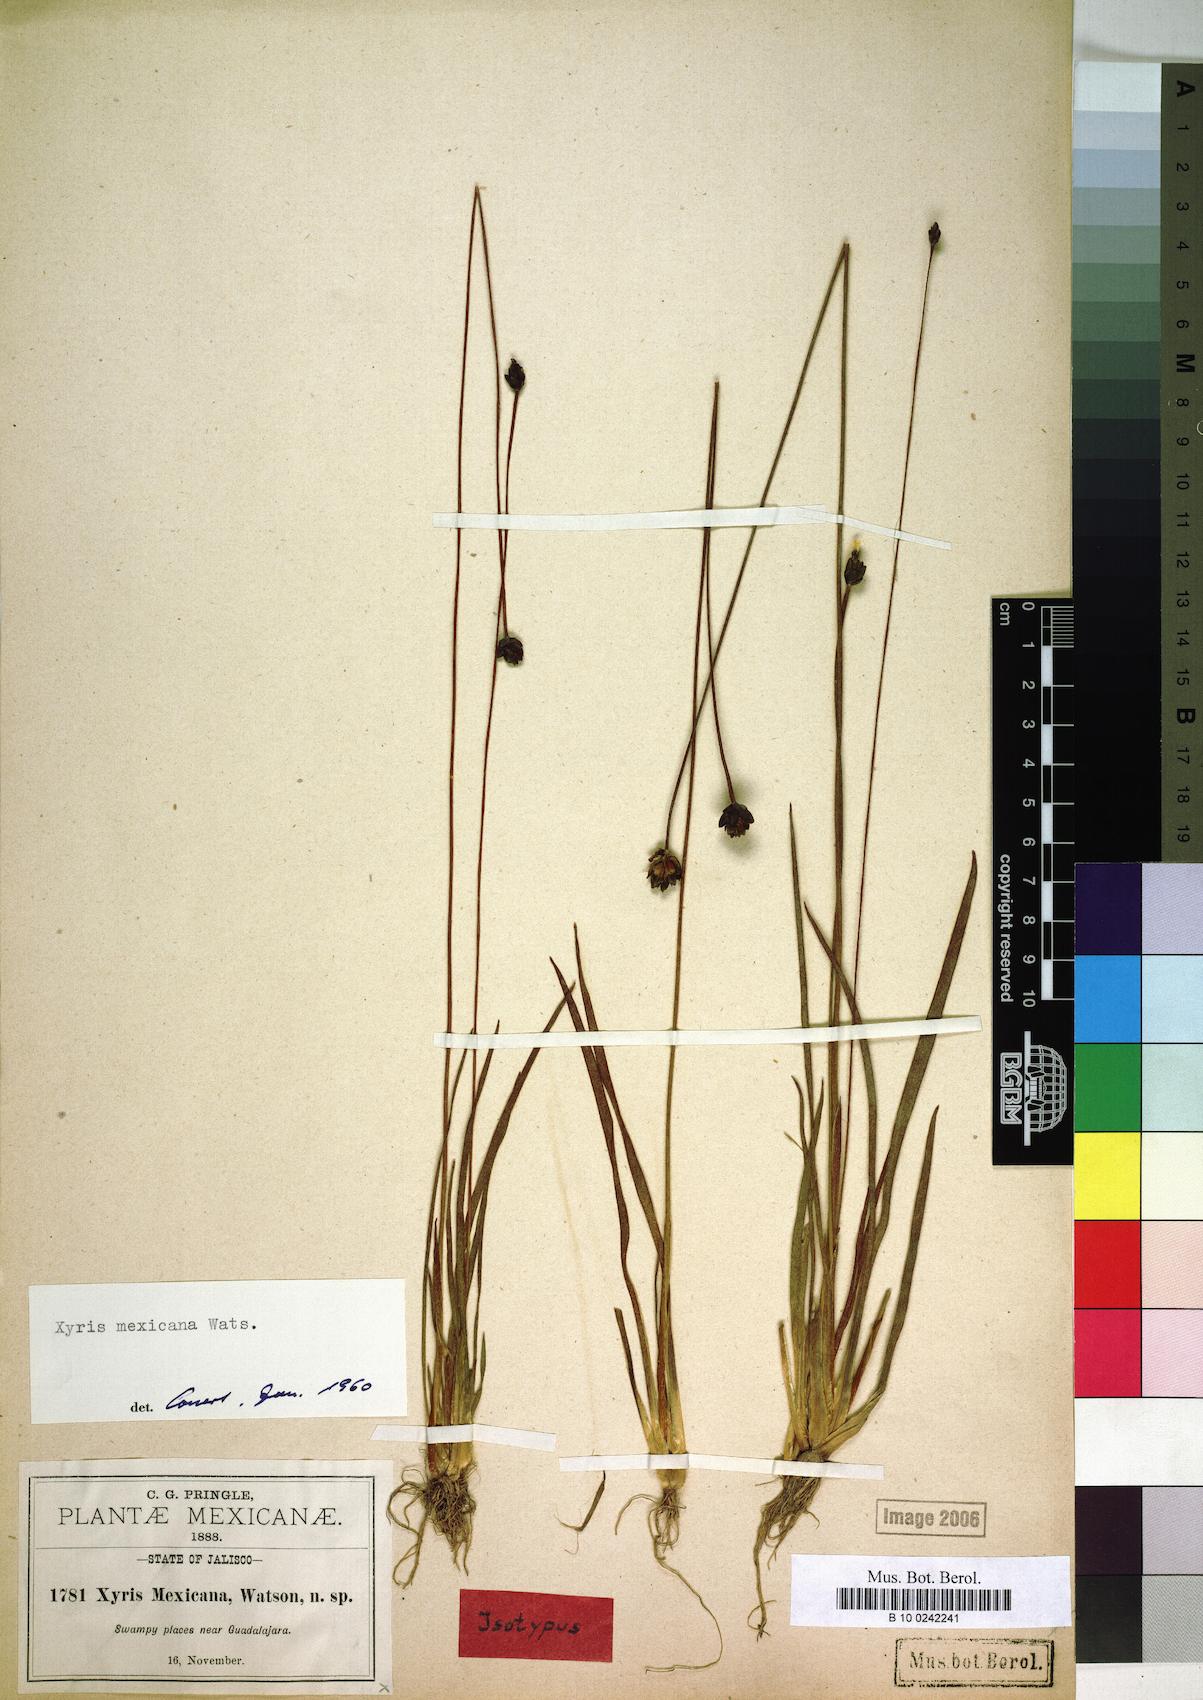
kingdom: Plantae
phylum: Tracheophyta
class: Liliopsida
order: Poales
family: Xyridaceae
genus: Xyris
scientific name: Xyris mexicana
